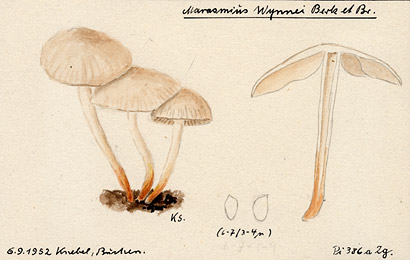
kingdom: Fungi
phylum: Basidiomycota
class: Agaricomycetes
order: Agaricales
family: Marasmiaceae
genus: Marasmius
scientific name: Marasmius wynneae
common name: Pearly parachute
